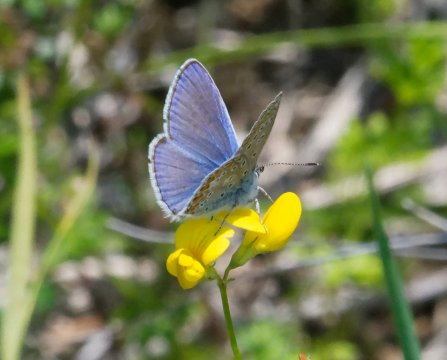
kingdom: Animalia
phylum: Arthropoda
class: Insecta
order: Lepidoptera
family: Lycaenidae
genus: Polyommatus
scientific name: Polyommatus icarus
